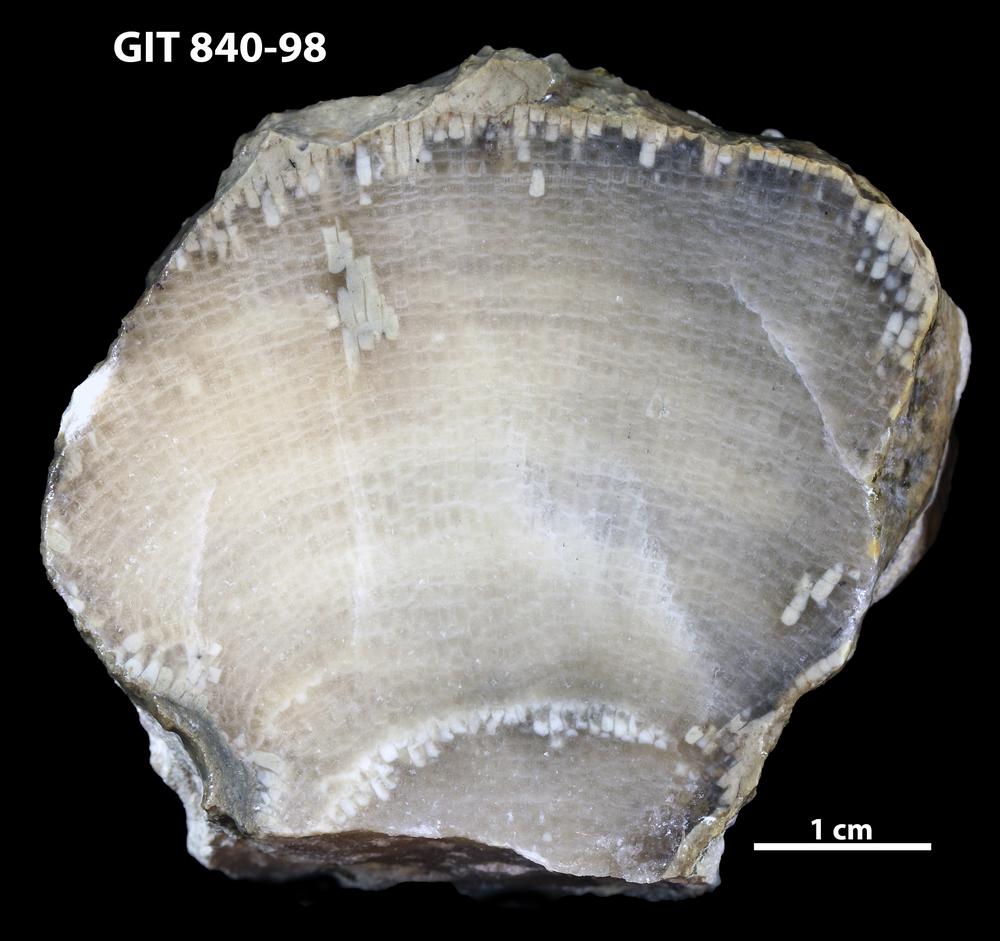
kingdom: Animalia
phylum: Cnidaria
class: Anthozoa
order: Heliolitina
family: Proheliolitidae
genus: Protoheliolites
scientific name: Protoheliolites
